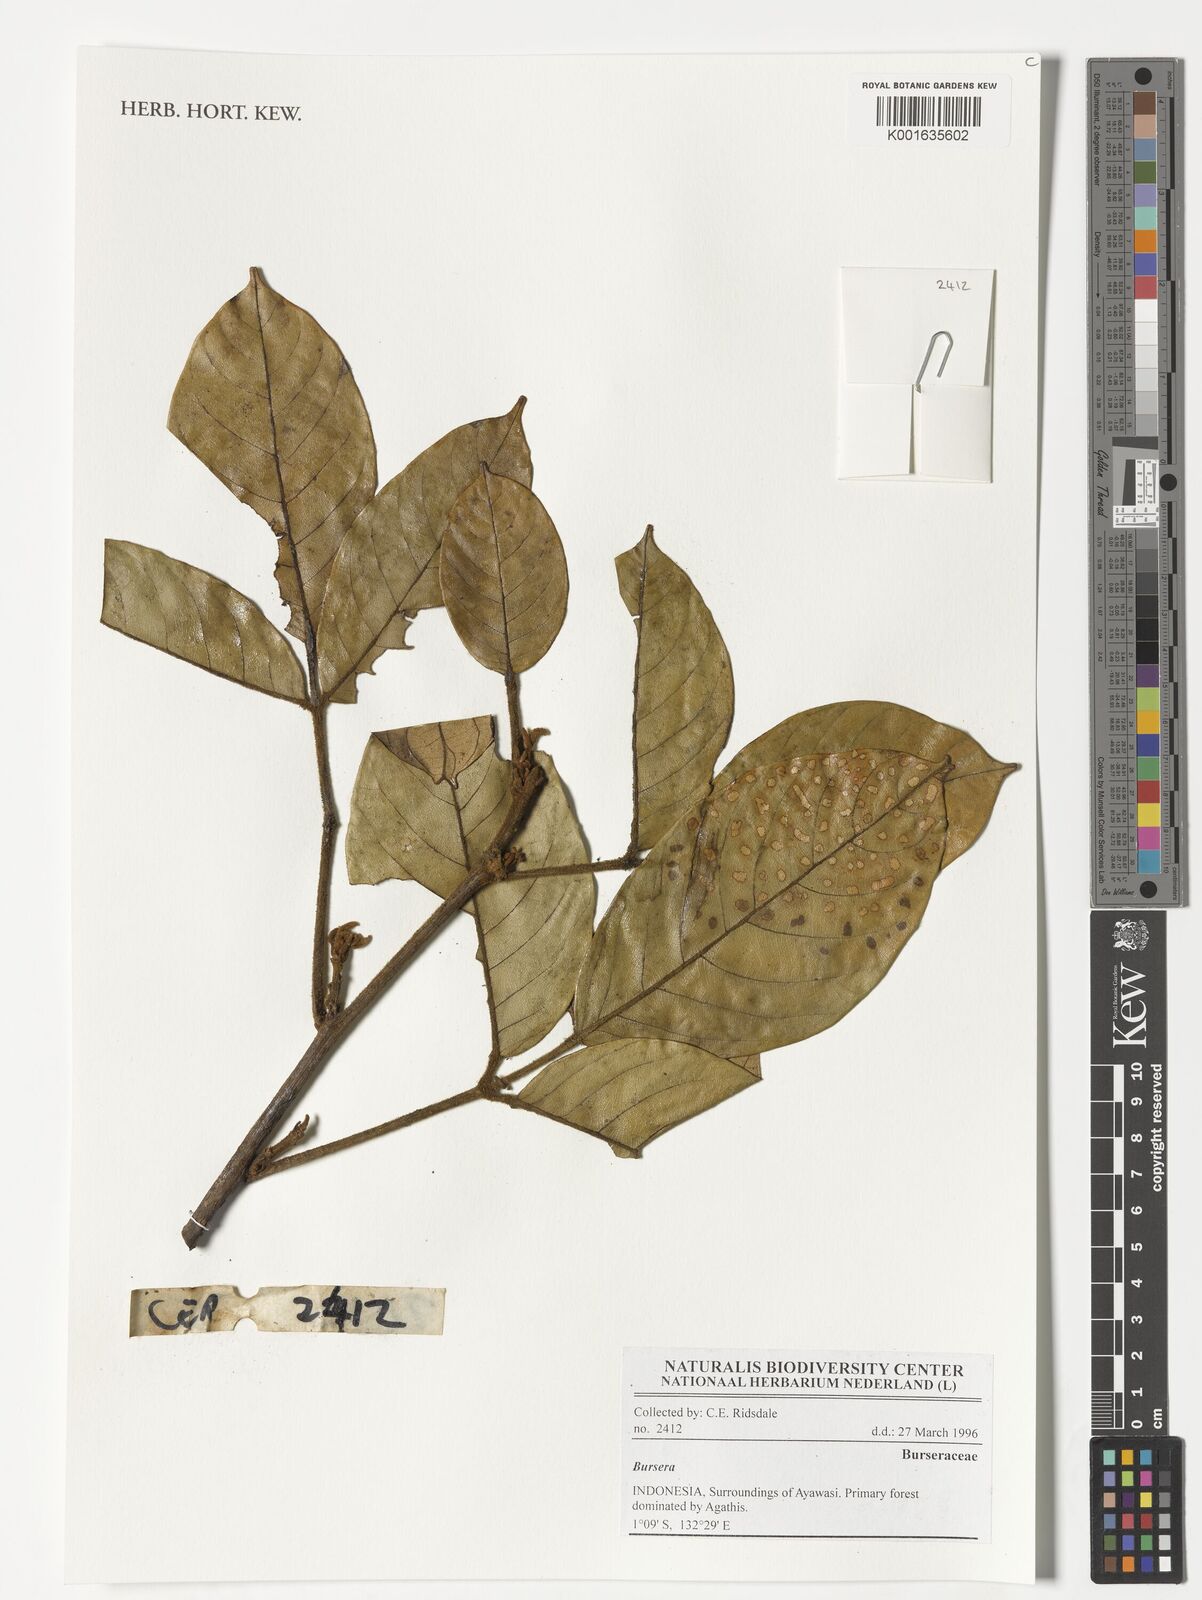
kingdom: Plantae
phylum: Tracheophyta
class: Magnoliopsida
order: Sapindales
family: Burseraceae
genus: Bursera
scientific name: Bursera
